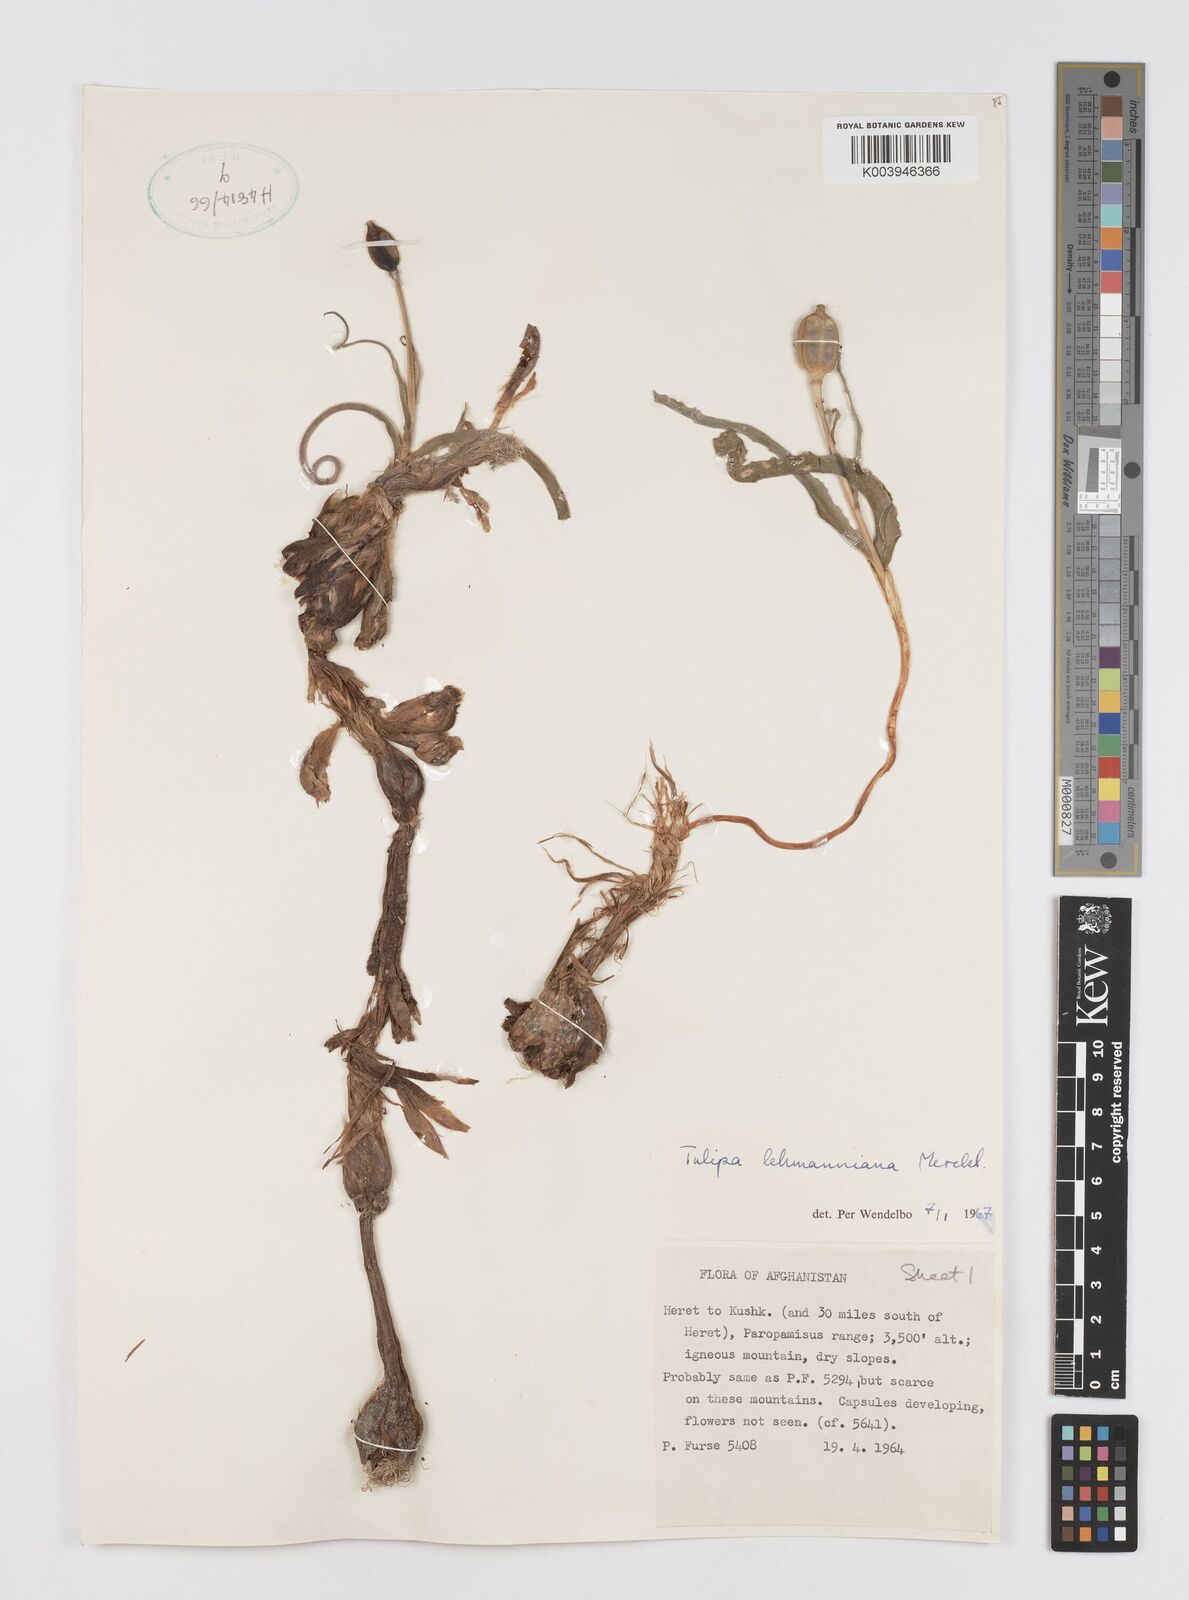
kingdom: Plantae
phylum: Tracheophyta
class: Liliopsida
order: Liliales
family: Liliaceae
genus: Tulipa
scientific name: Tulipa lehmanniana
